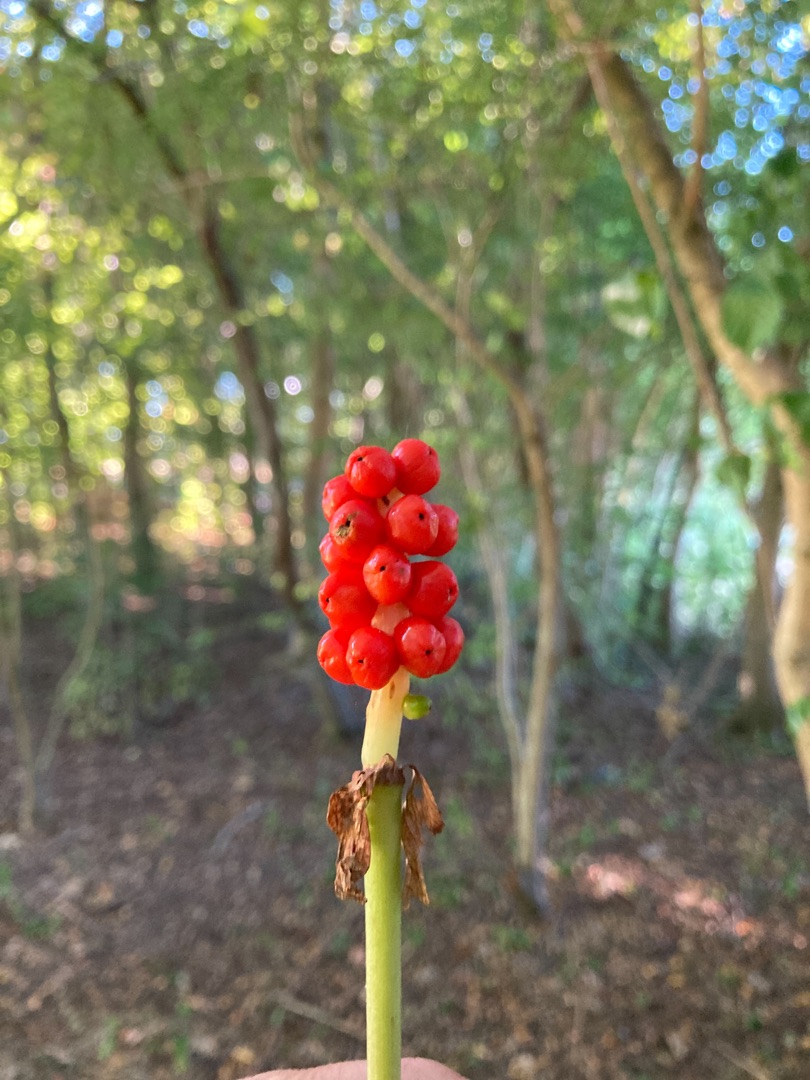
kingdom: Plantae
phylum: Tracheophyta
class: Liliopsida
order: Alismatales
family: Araceae
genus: Arum
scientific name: Arum
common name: Arumslægten
